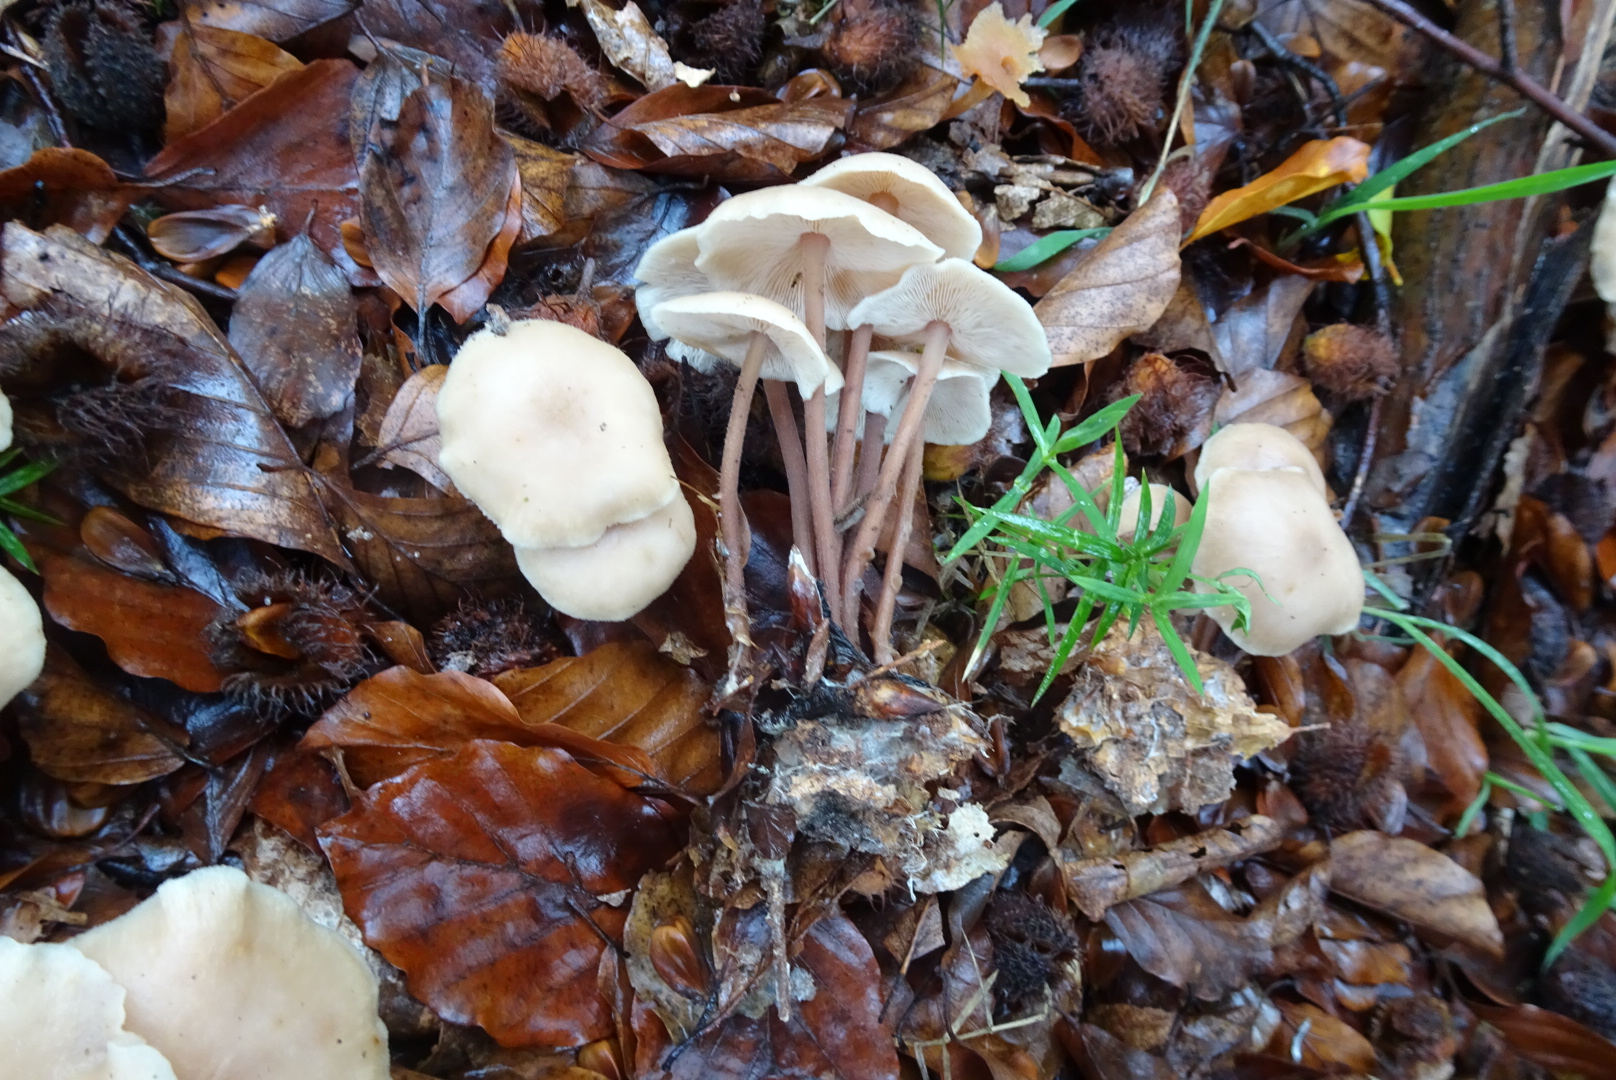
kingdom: Fungi
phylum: Basidiomycota
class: Agaricomycetes
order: Agaricales
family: Omphalotaceae
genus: Collybiopsis
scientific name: Collybiopsis confluens
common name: knippe-fladhat
